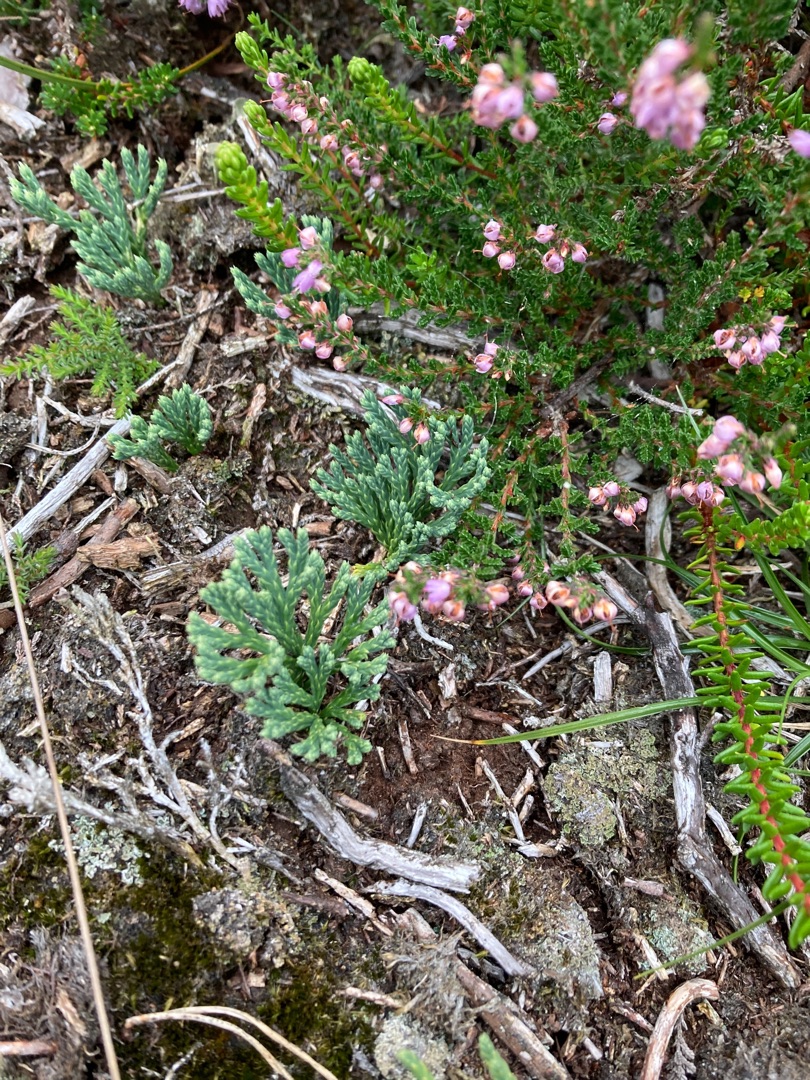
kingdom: Plantae
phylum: Tracheophyta
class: Lycopodiopsida
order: Lycopodiales
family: Lycopodiaceae
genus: Diphasiastrum
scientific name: Diphasiastrum tristachyum
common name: Cypres-ulvefod
